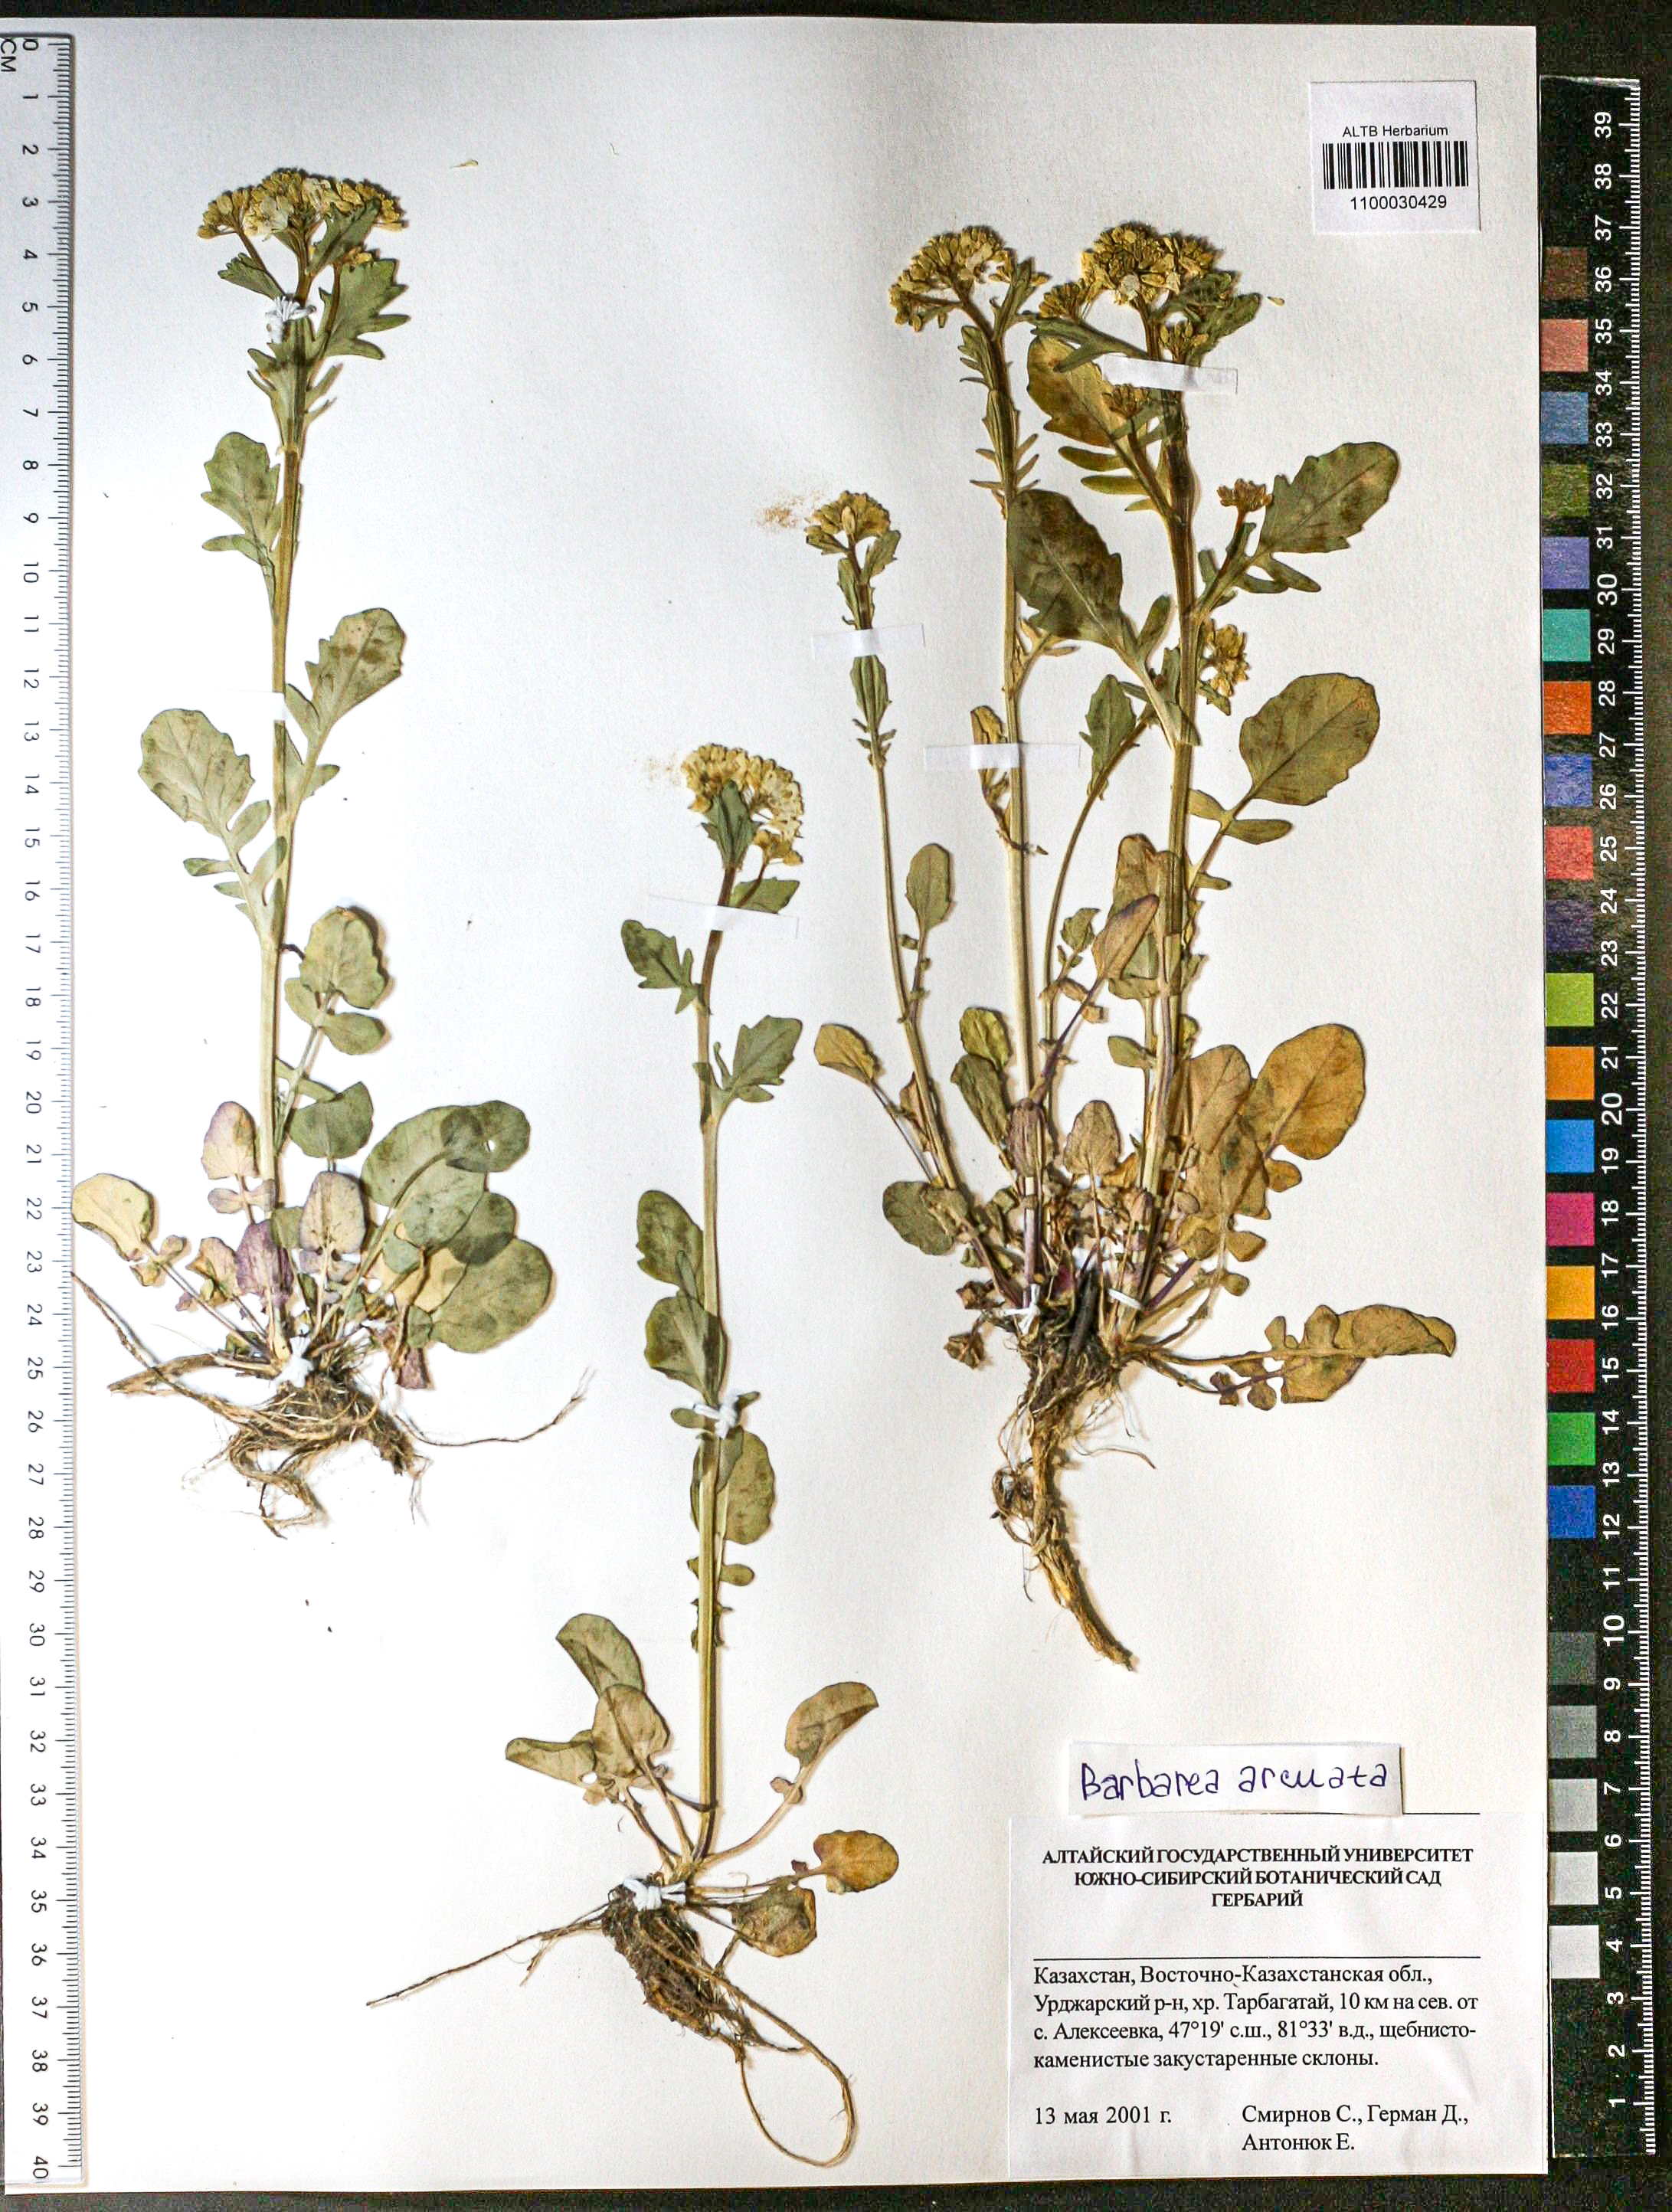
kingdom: Plantae
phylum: Tracheophyta
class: Magnoliopsida
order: Brassicales
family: Brassicaceae
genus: Barbarea
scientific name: Barbarea vulgaris
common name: Cressy-greens
